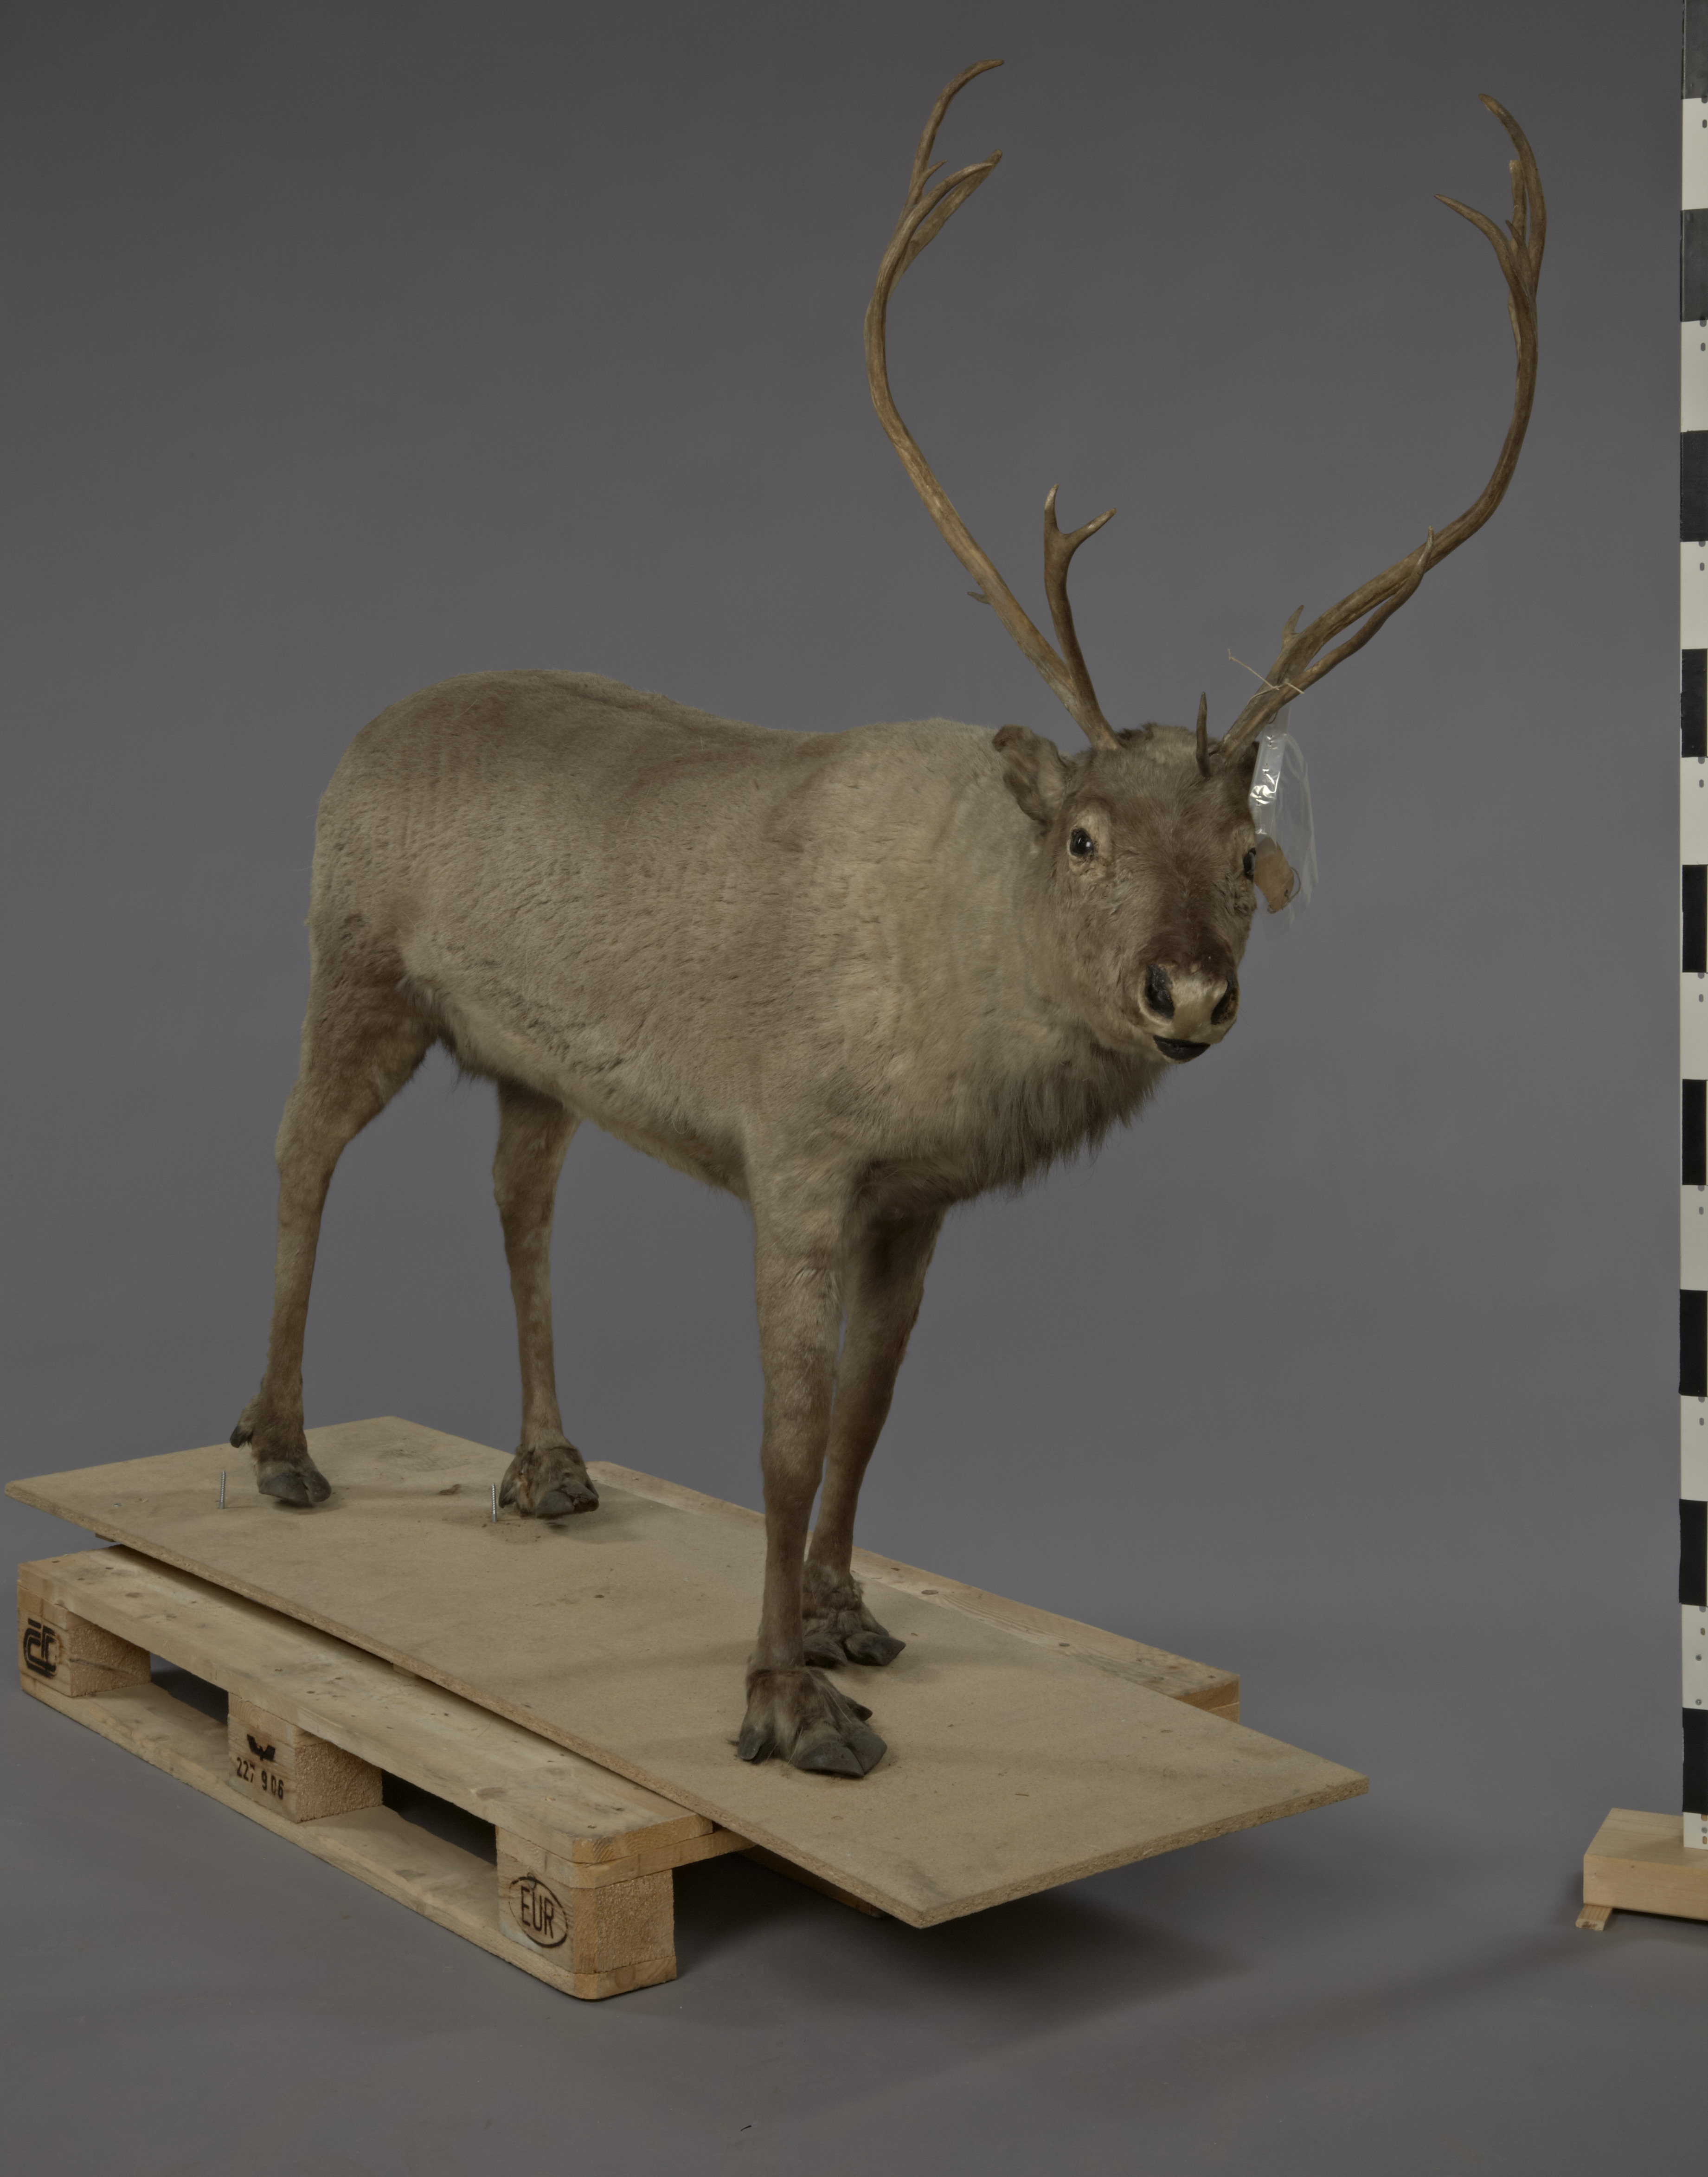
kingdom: Animalia
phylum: Chordata
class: Mammalia
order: Artiodactyla
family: Cervidae
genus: Rangifer
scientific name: Rangifer tarandus
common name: Reindeer
